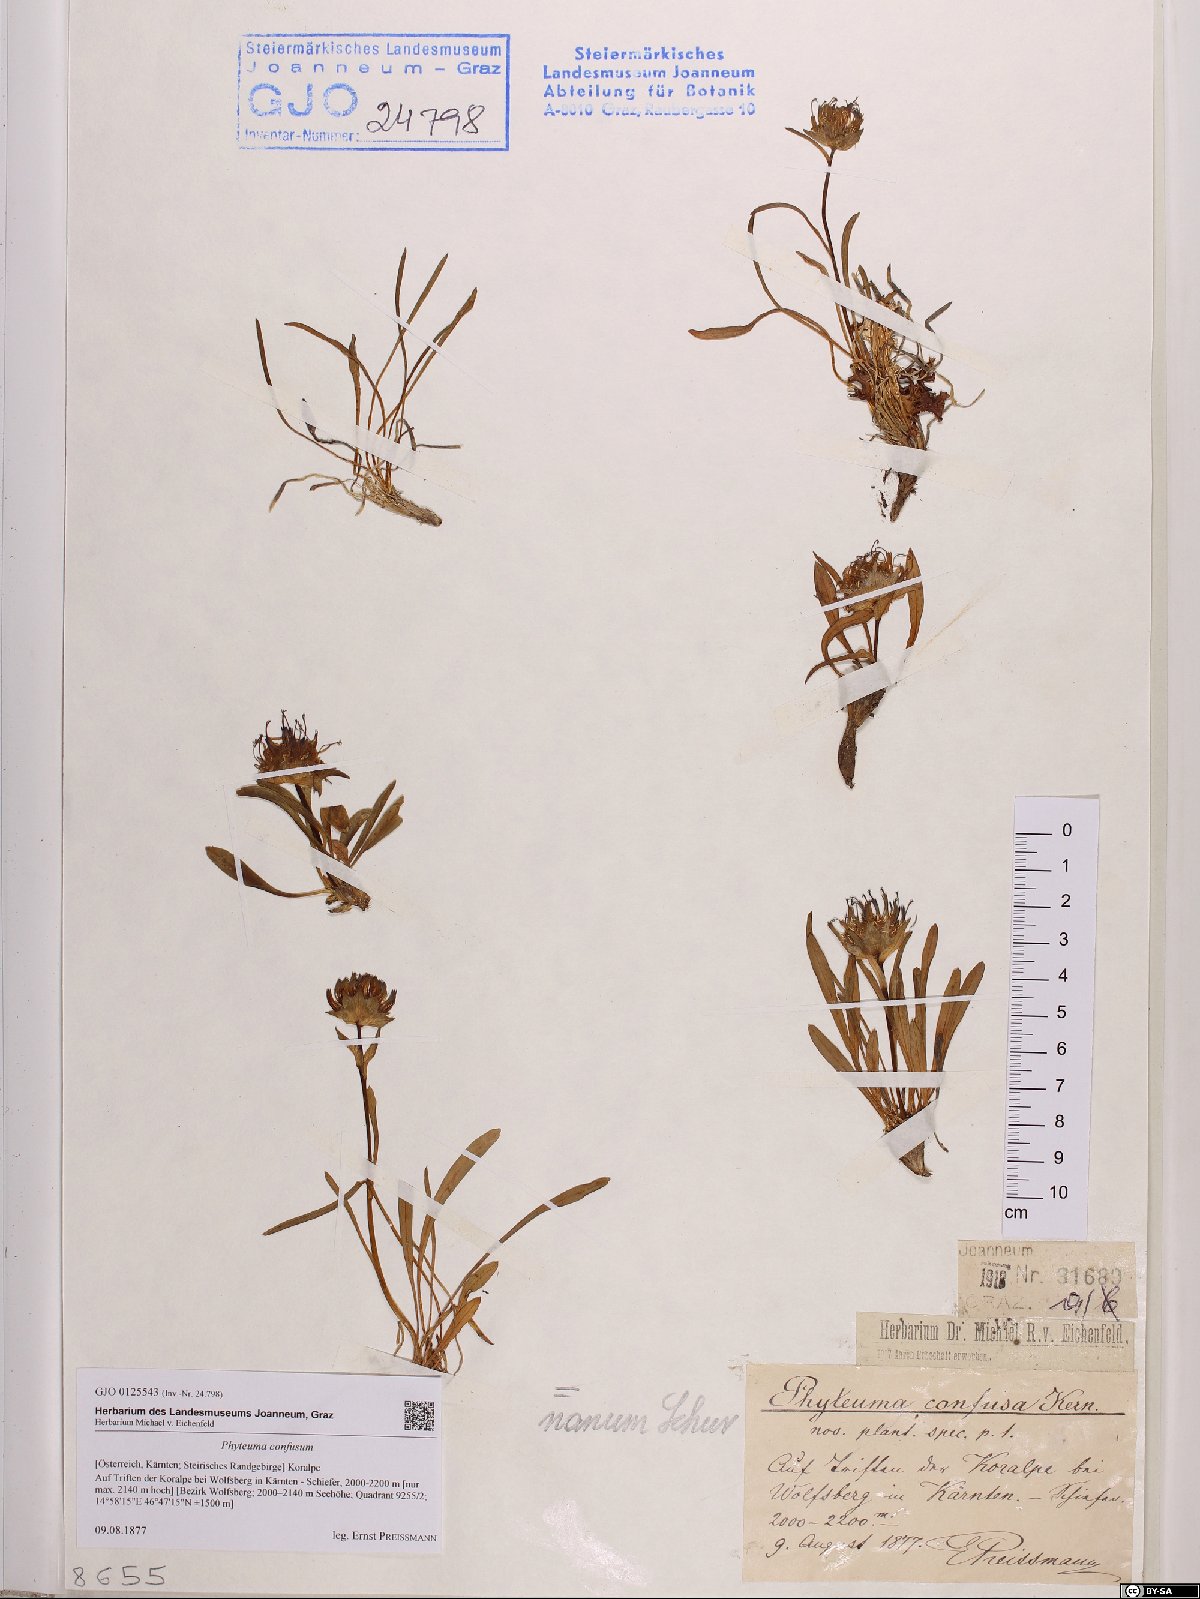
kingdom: Plantae
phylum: Tracheophyta
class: Magnoliopsida
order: Asterales
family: Campanulaceae
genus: Phyteuma
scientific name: Phyteuma confusum
